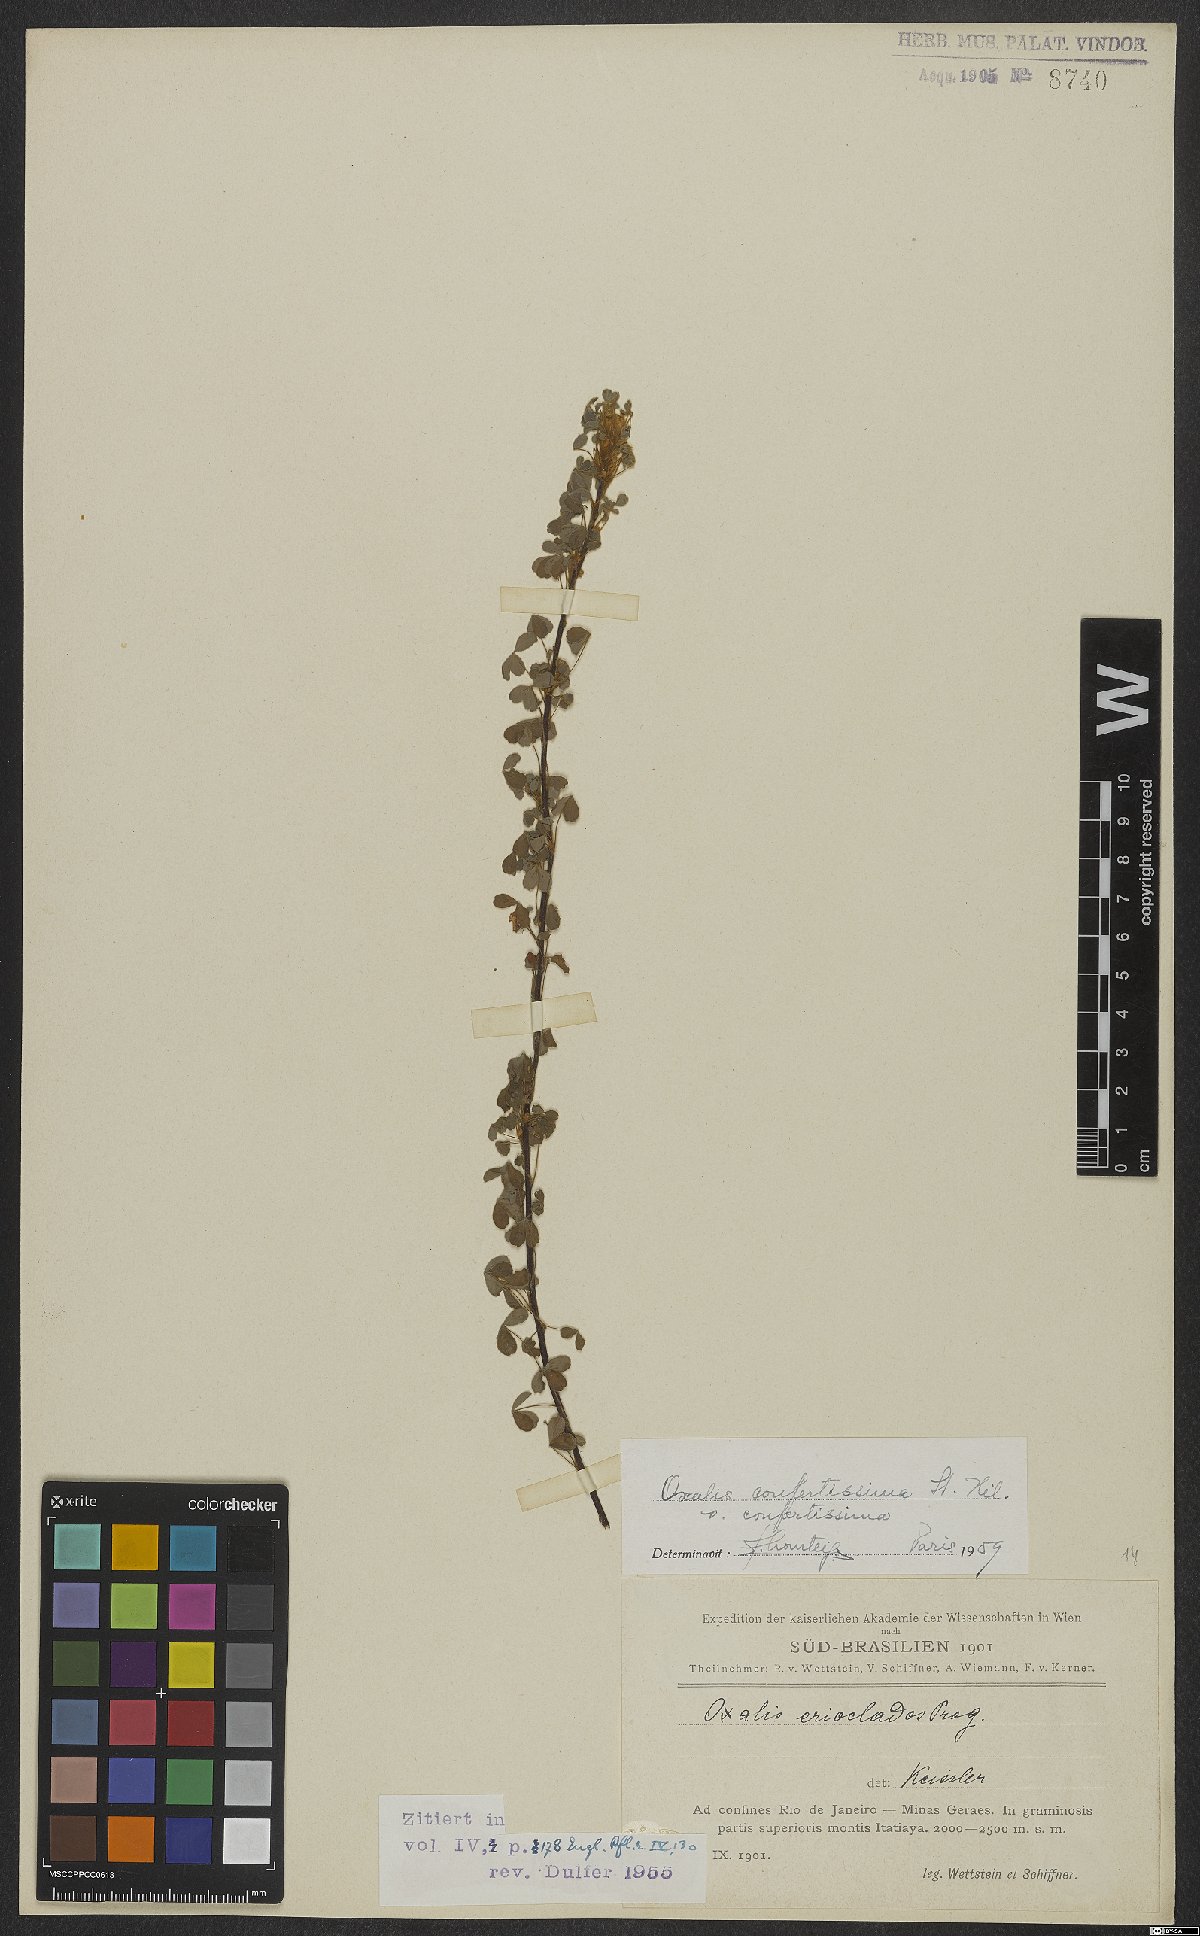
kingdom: Plantae
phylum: Tracheophyta
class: Magnoliopsida
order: Oxalidales
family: Oxalidaceae
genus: Oxalis
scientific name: Oxalis confertissima
